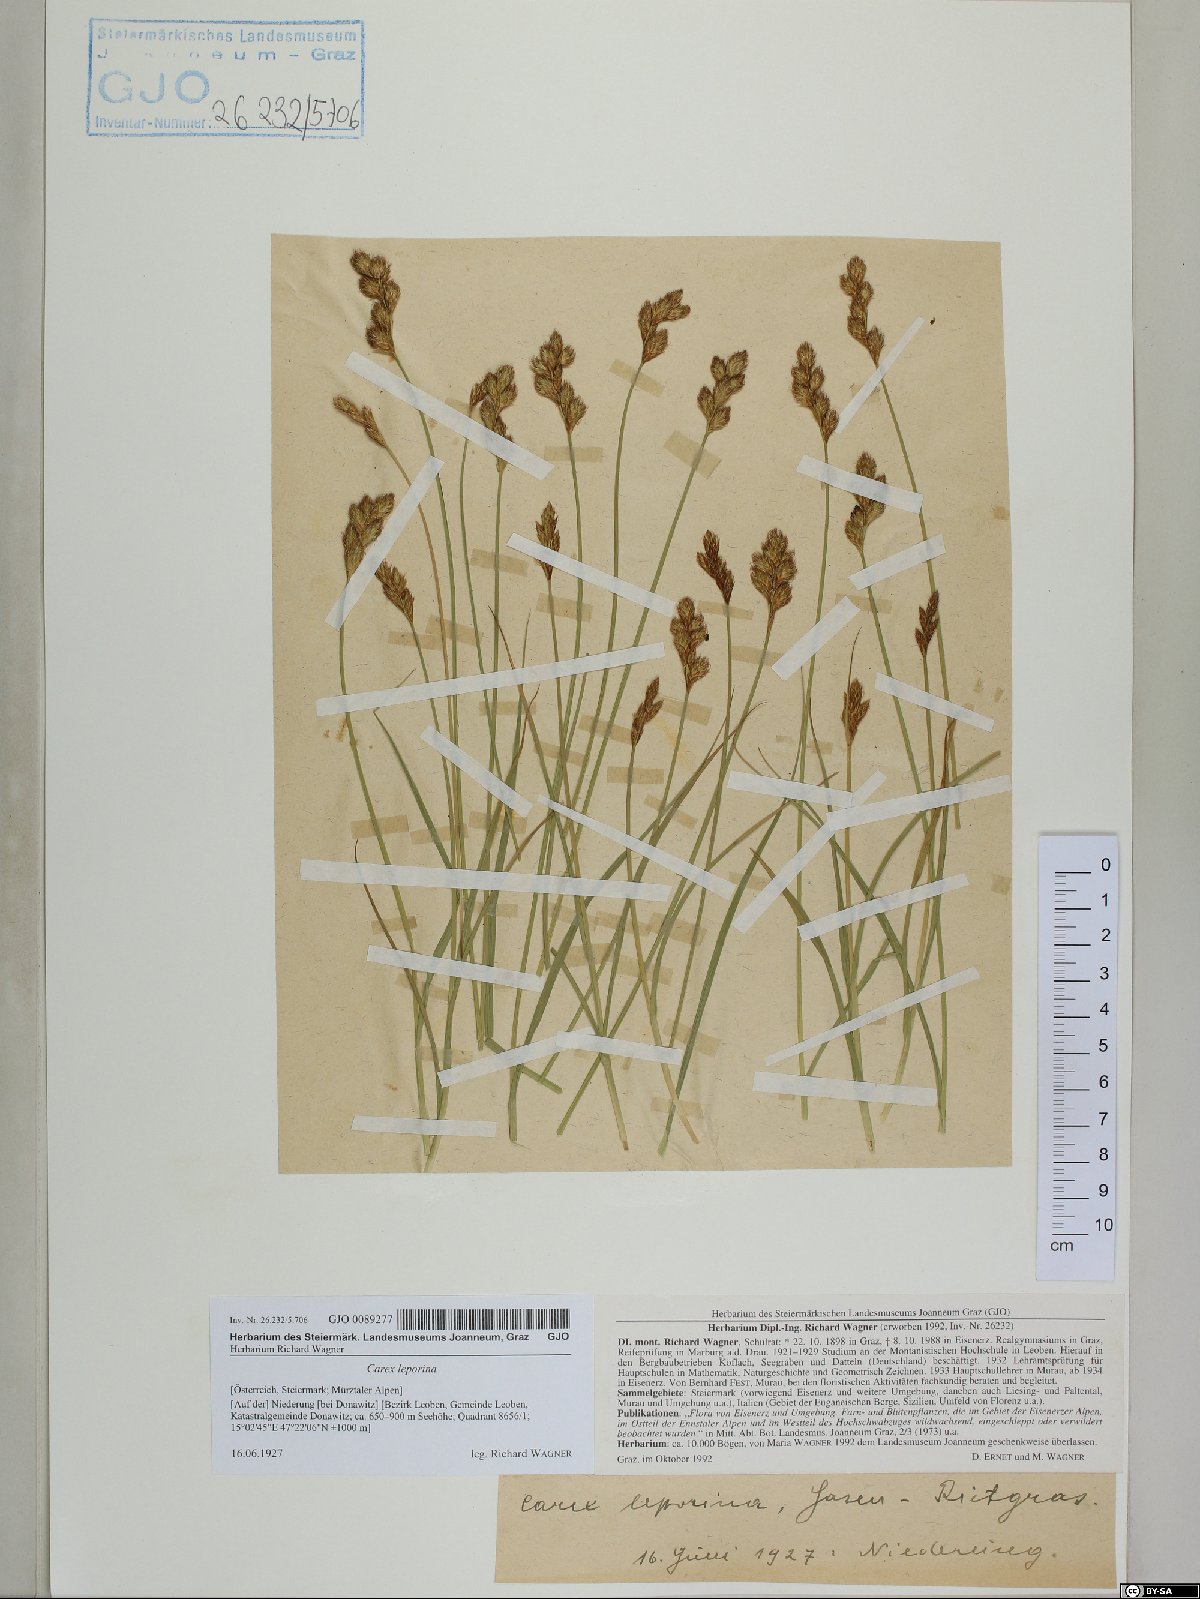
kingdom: Plantae
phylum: Tracheophyta
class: Liliopsida
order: Poales
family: Cyperaceae
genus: Carex
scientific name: Carex leporina
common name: Oval sedge
